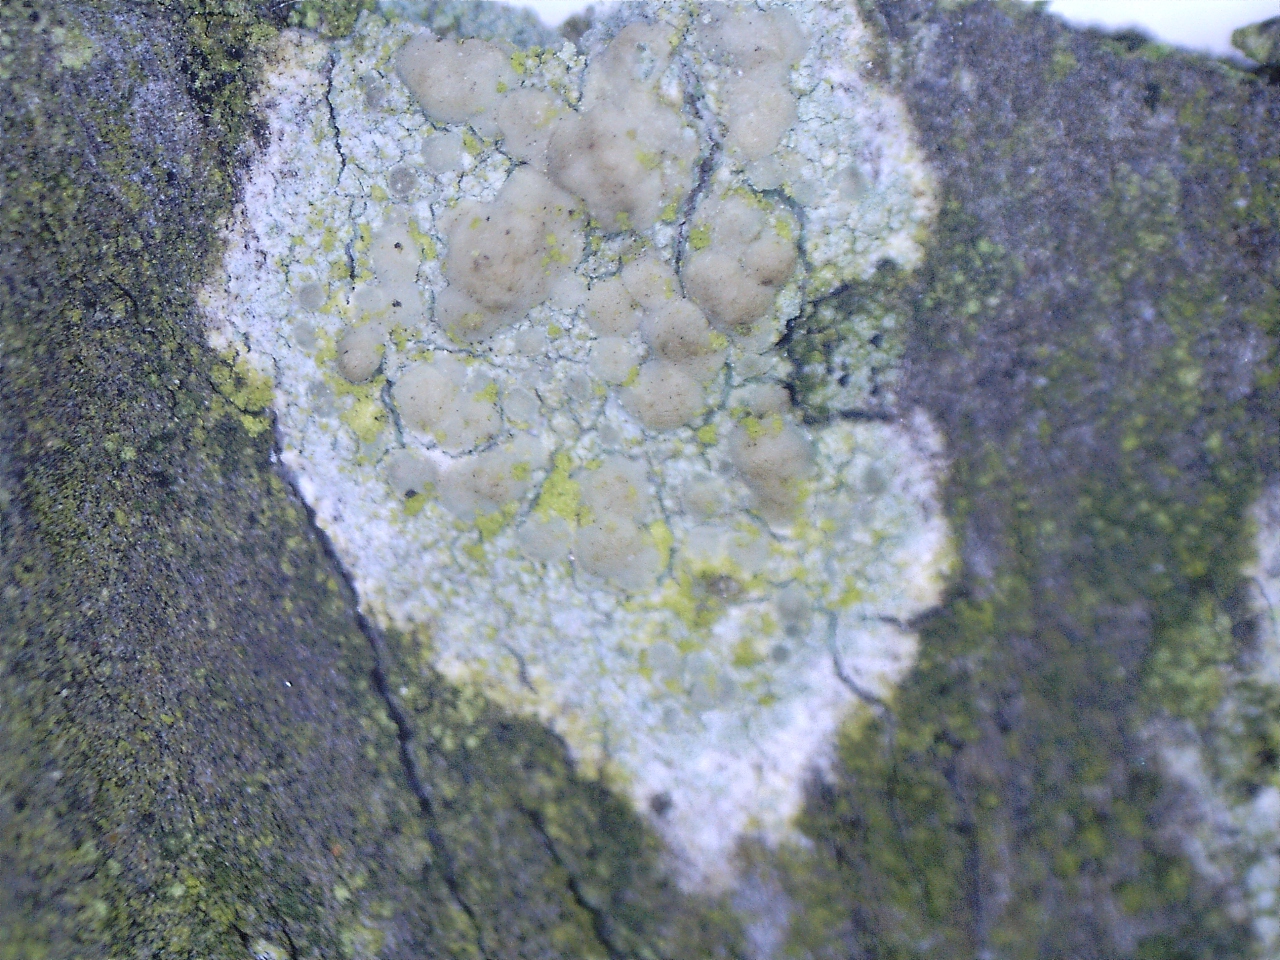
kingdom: Fungi
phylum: Ascomycota
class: Lecanoromycetes
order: Lecanorales
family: Lecanoraceae
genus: Lecanora
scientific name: Lecanora symmicta
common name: kvist-kantskivelav
